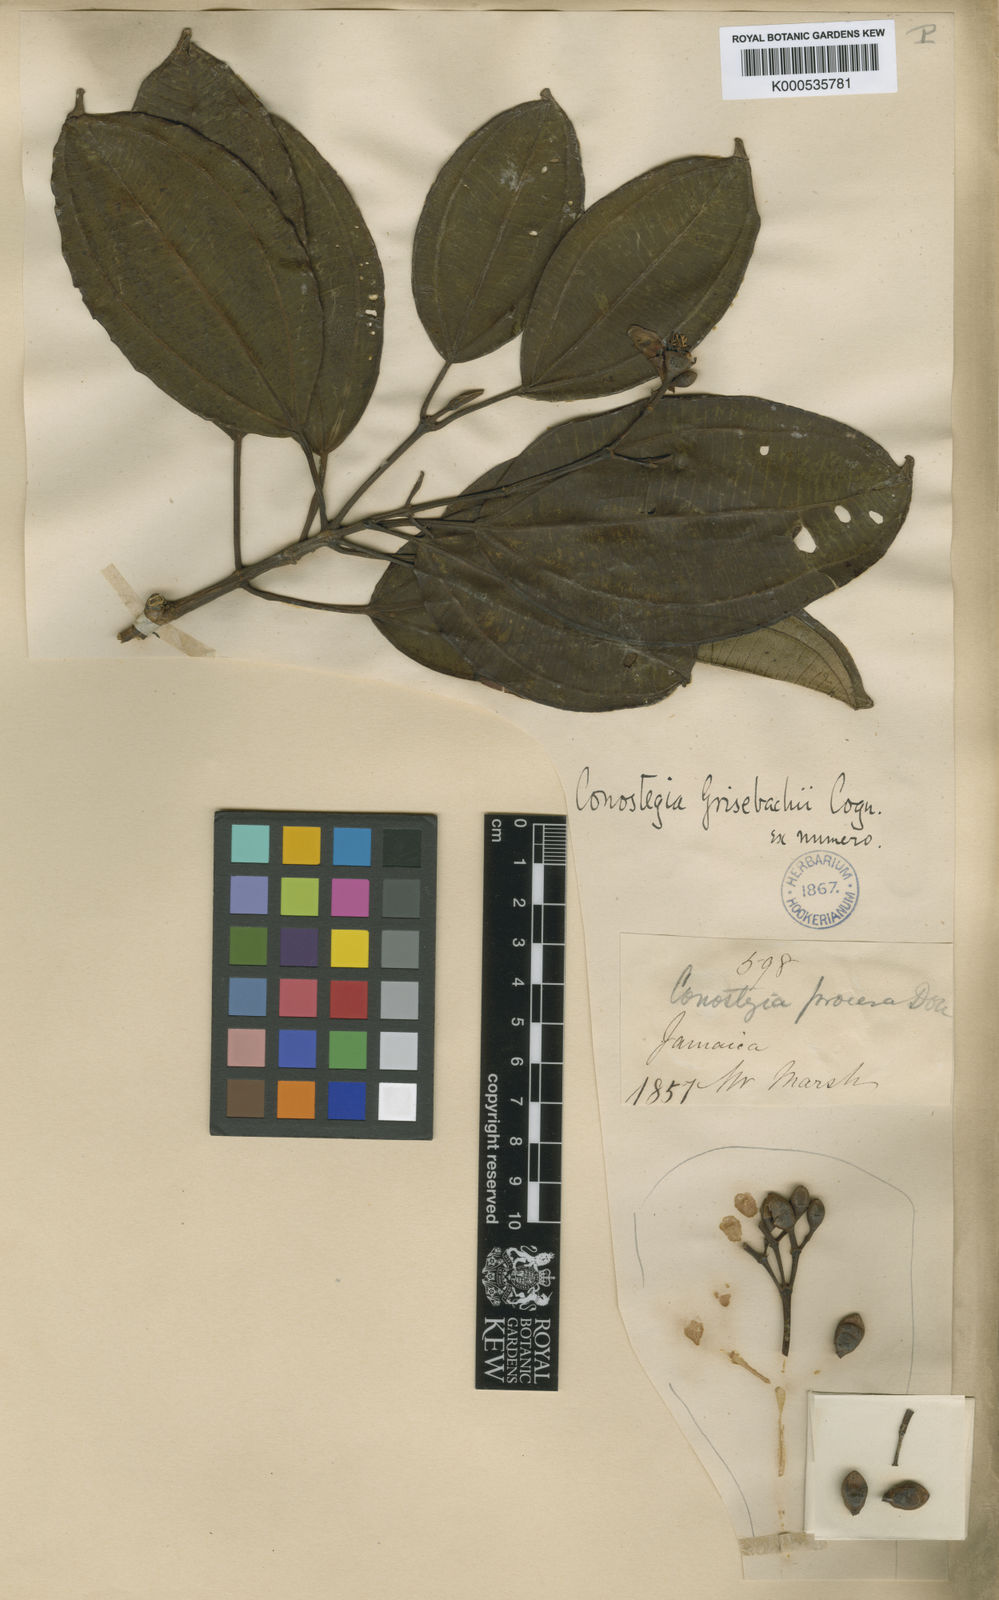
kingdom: Plantae
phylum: Tracheophyta
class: Magnoliopsida
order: Myrtales
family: Melastomataceae
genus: Miconia
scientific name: Miconia balbisiana
